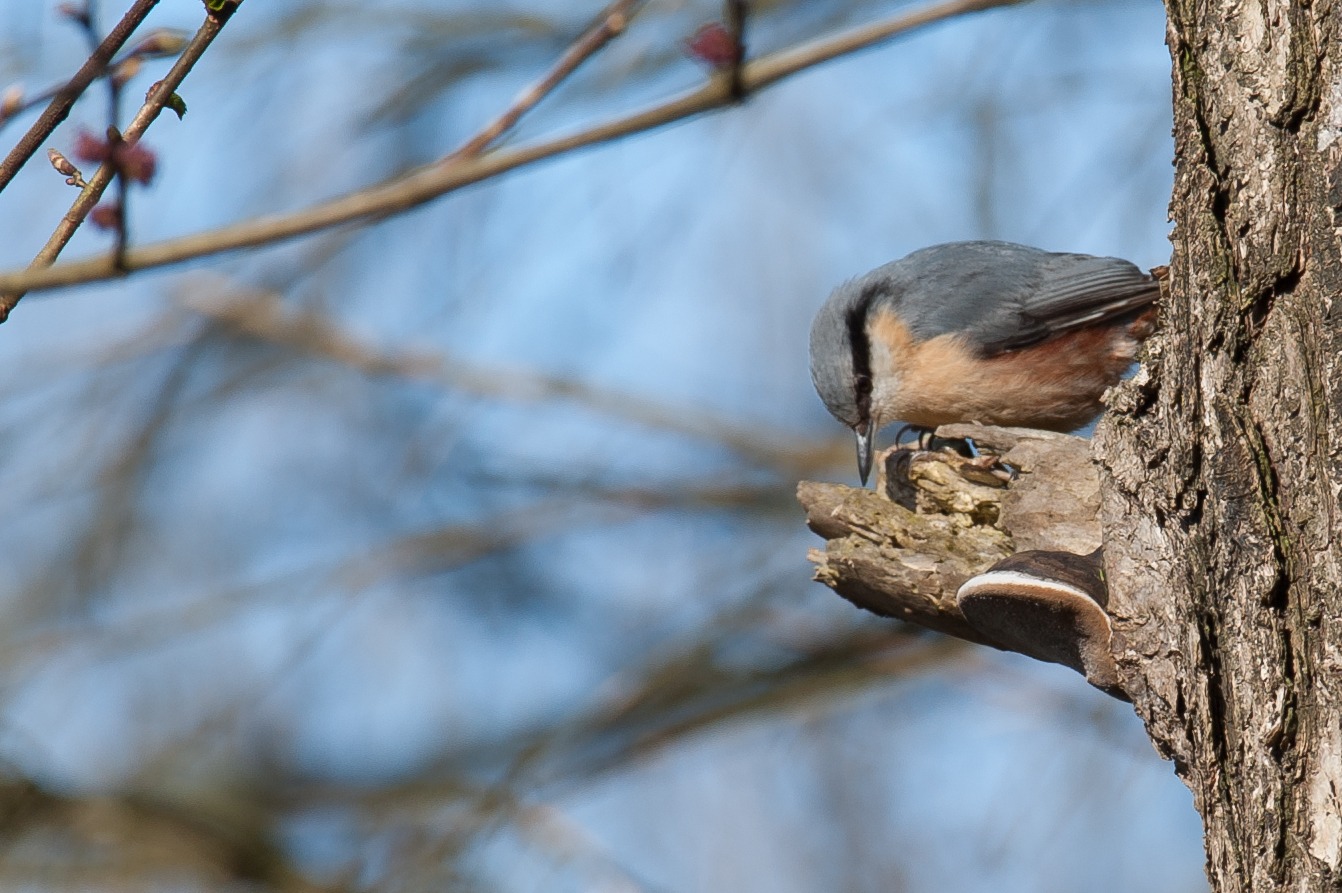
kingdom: Animalia
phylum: Chordata
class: Aves
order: Passeriformes
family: Sittidae
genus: Sitta
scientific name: Sitta europaea
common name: Spætmejse
